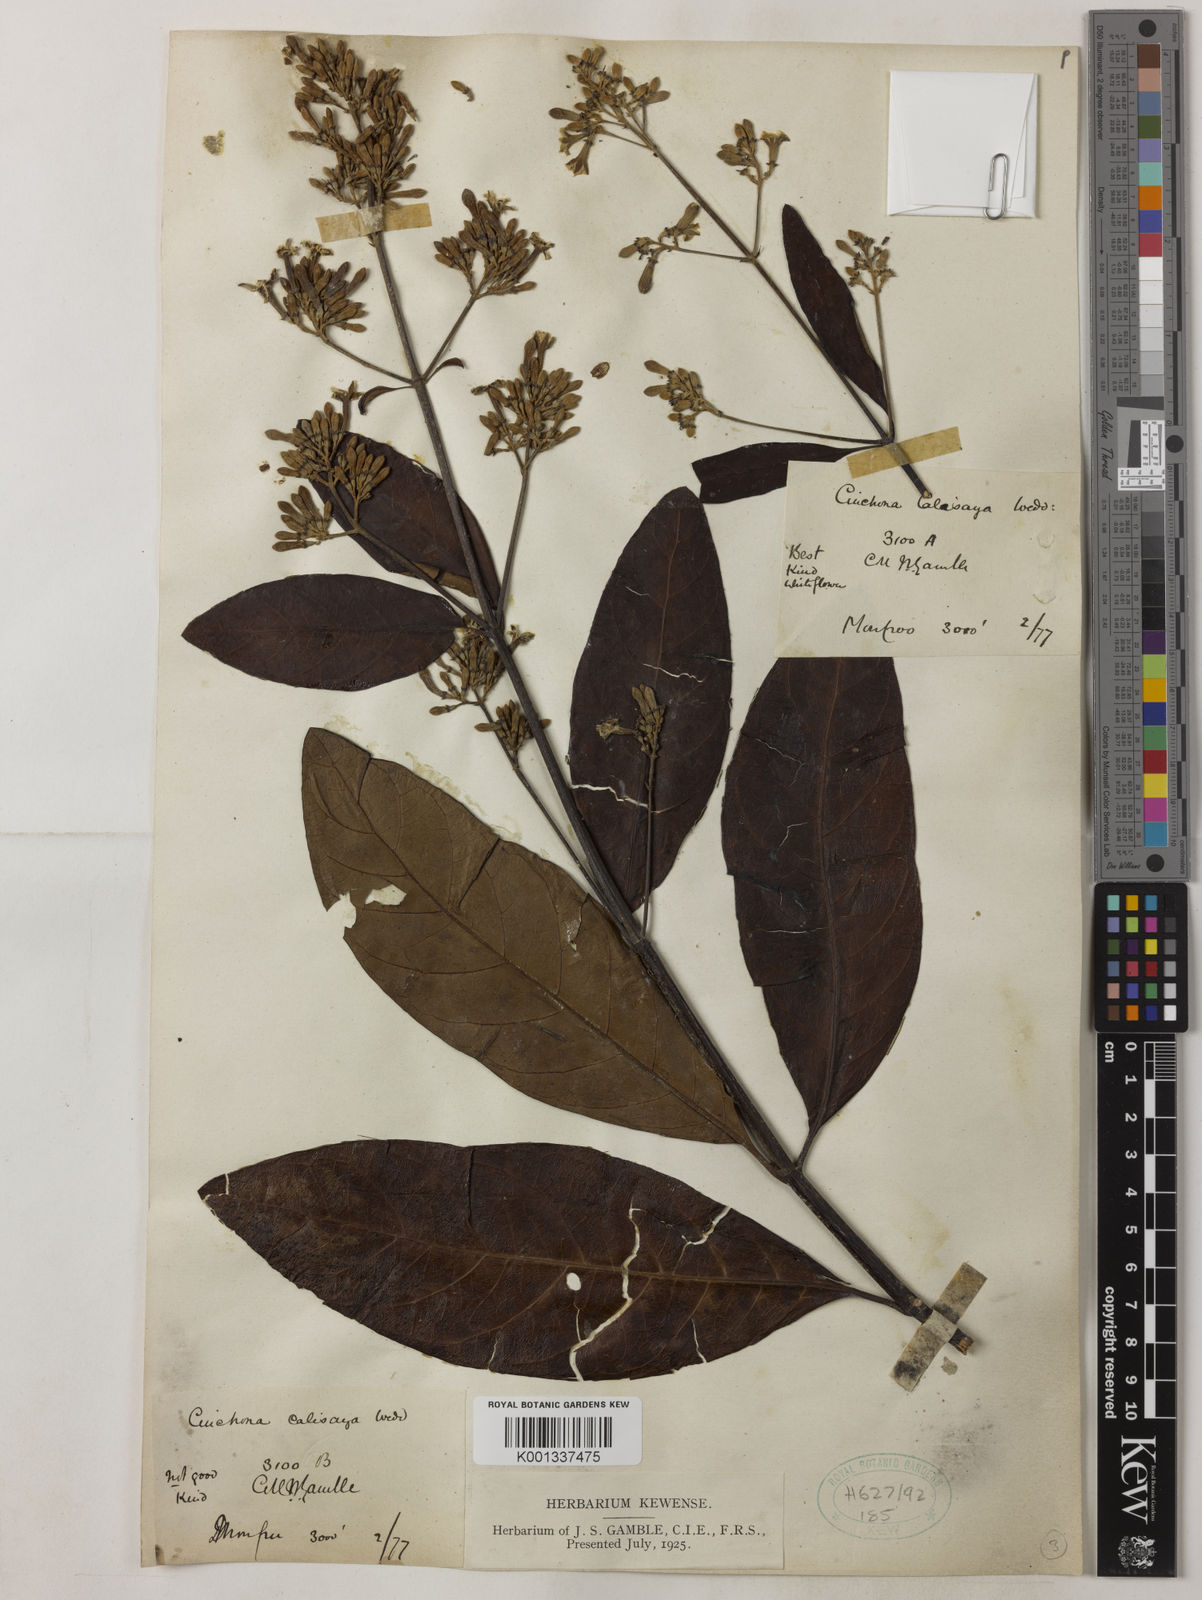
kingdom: Plantae
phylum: Tracheophyta
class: Magnoliopsida
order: Gentianales
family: Rubiaceae
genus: Cinchona
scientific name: Cinchona calisaya
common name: Ledgerbark
